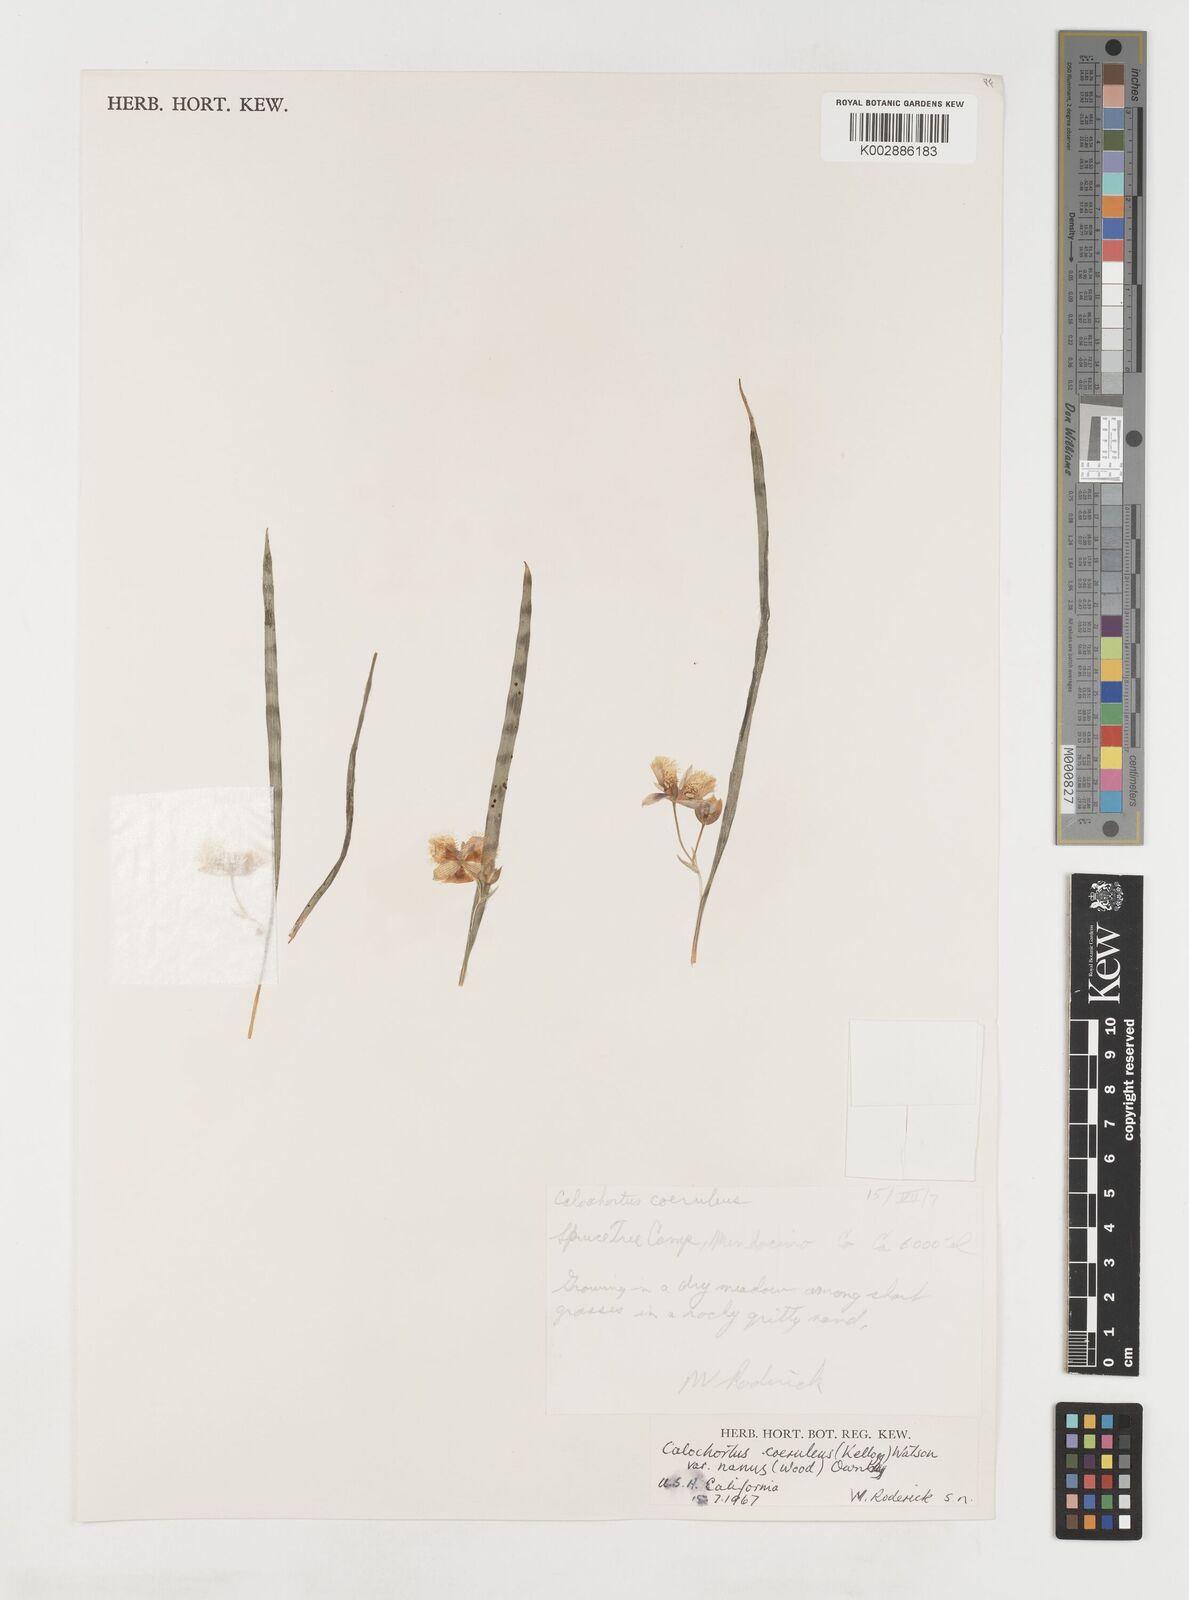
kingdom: Plantae
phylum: Tracheophyta
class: Liliopsida
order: Liliales
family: Liliaceae
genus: Calochortus
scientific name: Calochortus coeruleus
